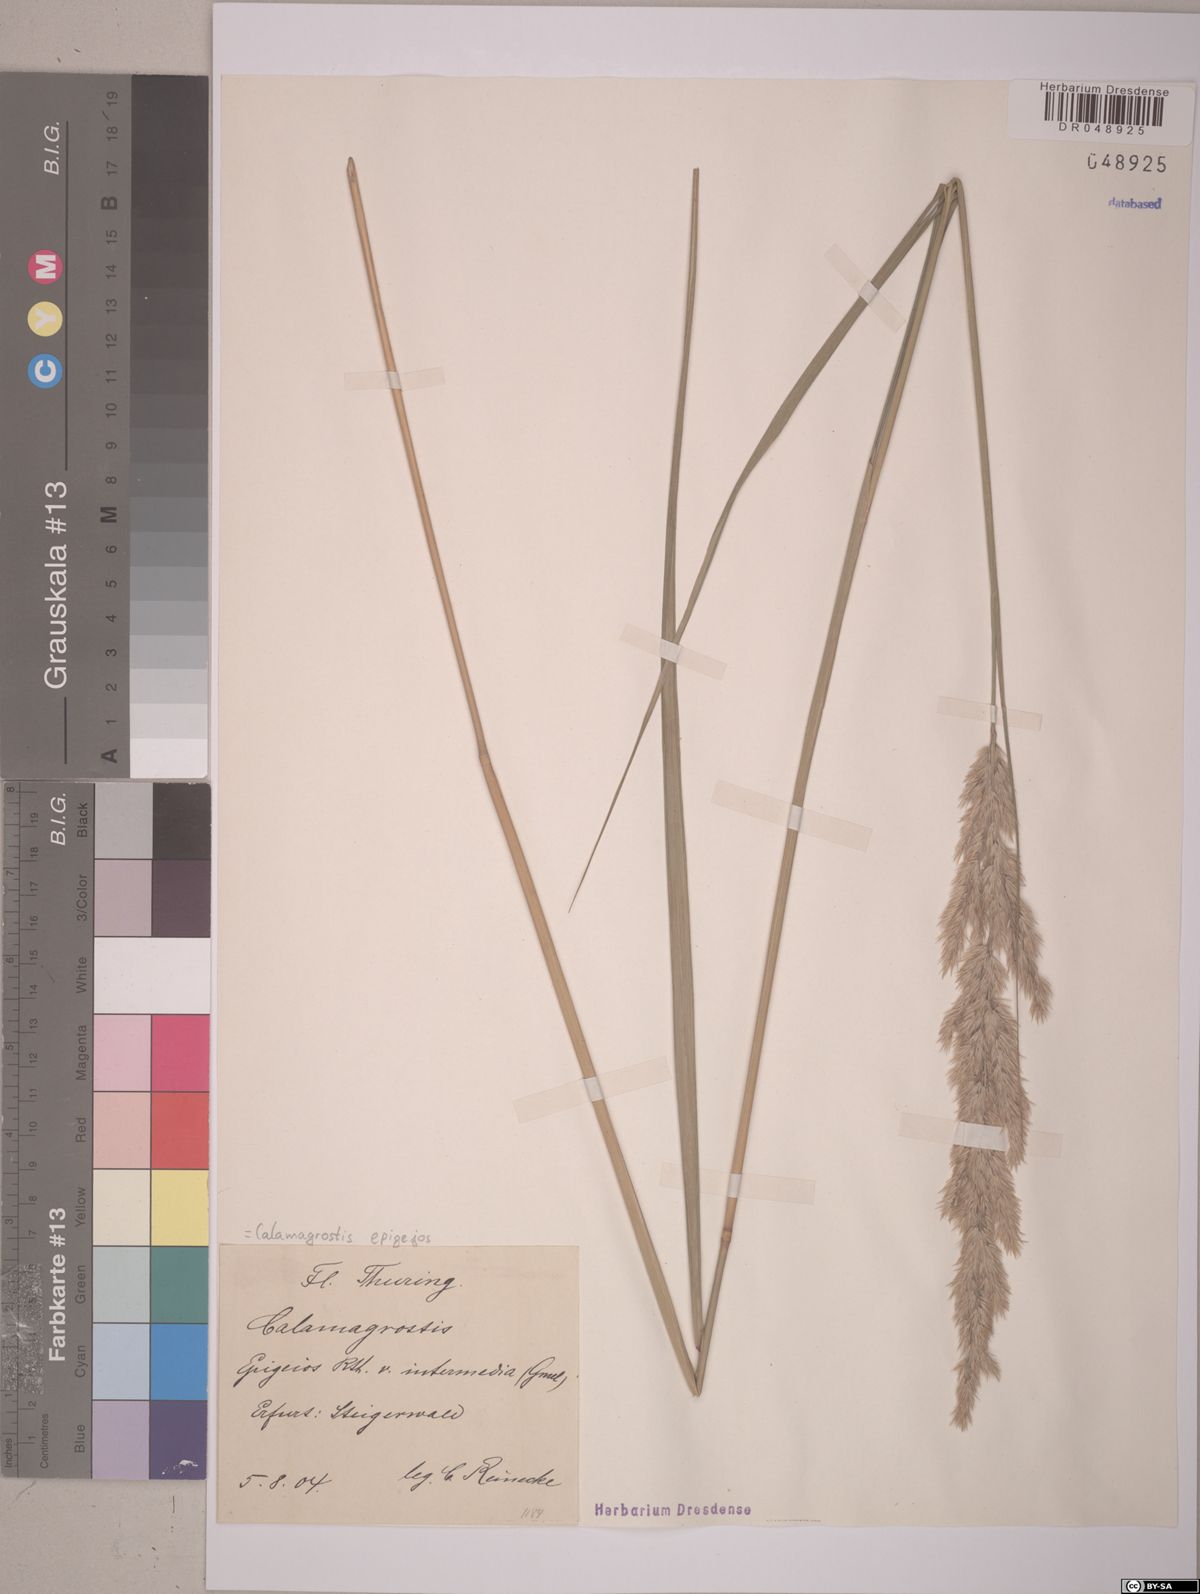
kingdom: Plantae
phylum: Tracheophyta
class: Liliopsida
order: Poales
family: Poaceae
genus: Calamagrostis
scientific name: Calamagrostis epigejos
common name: Wood small-reed
